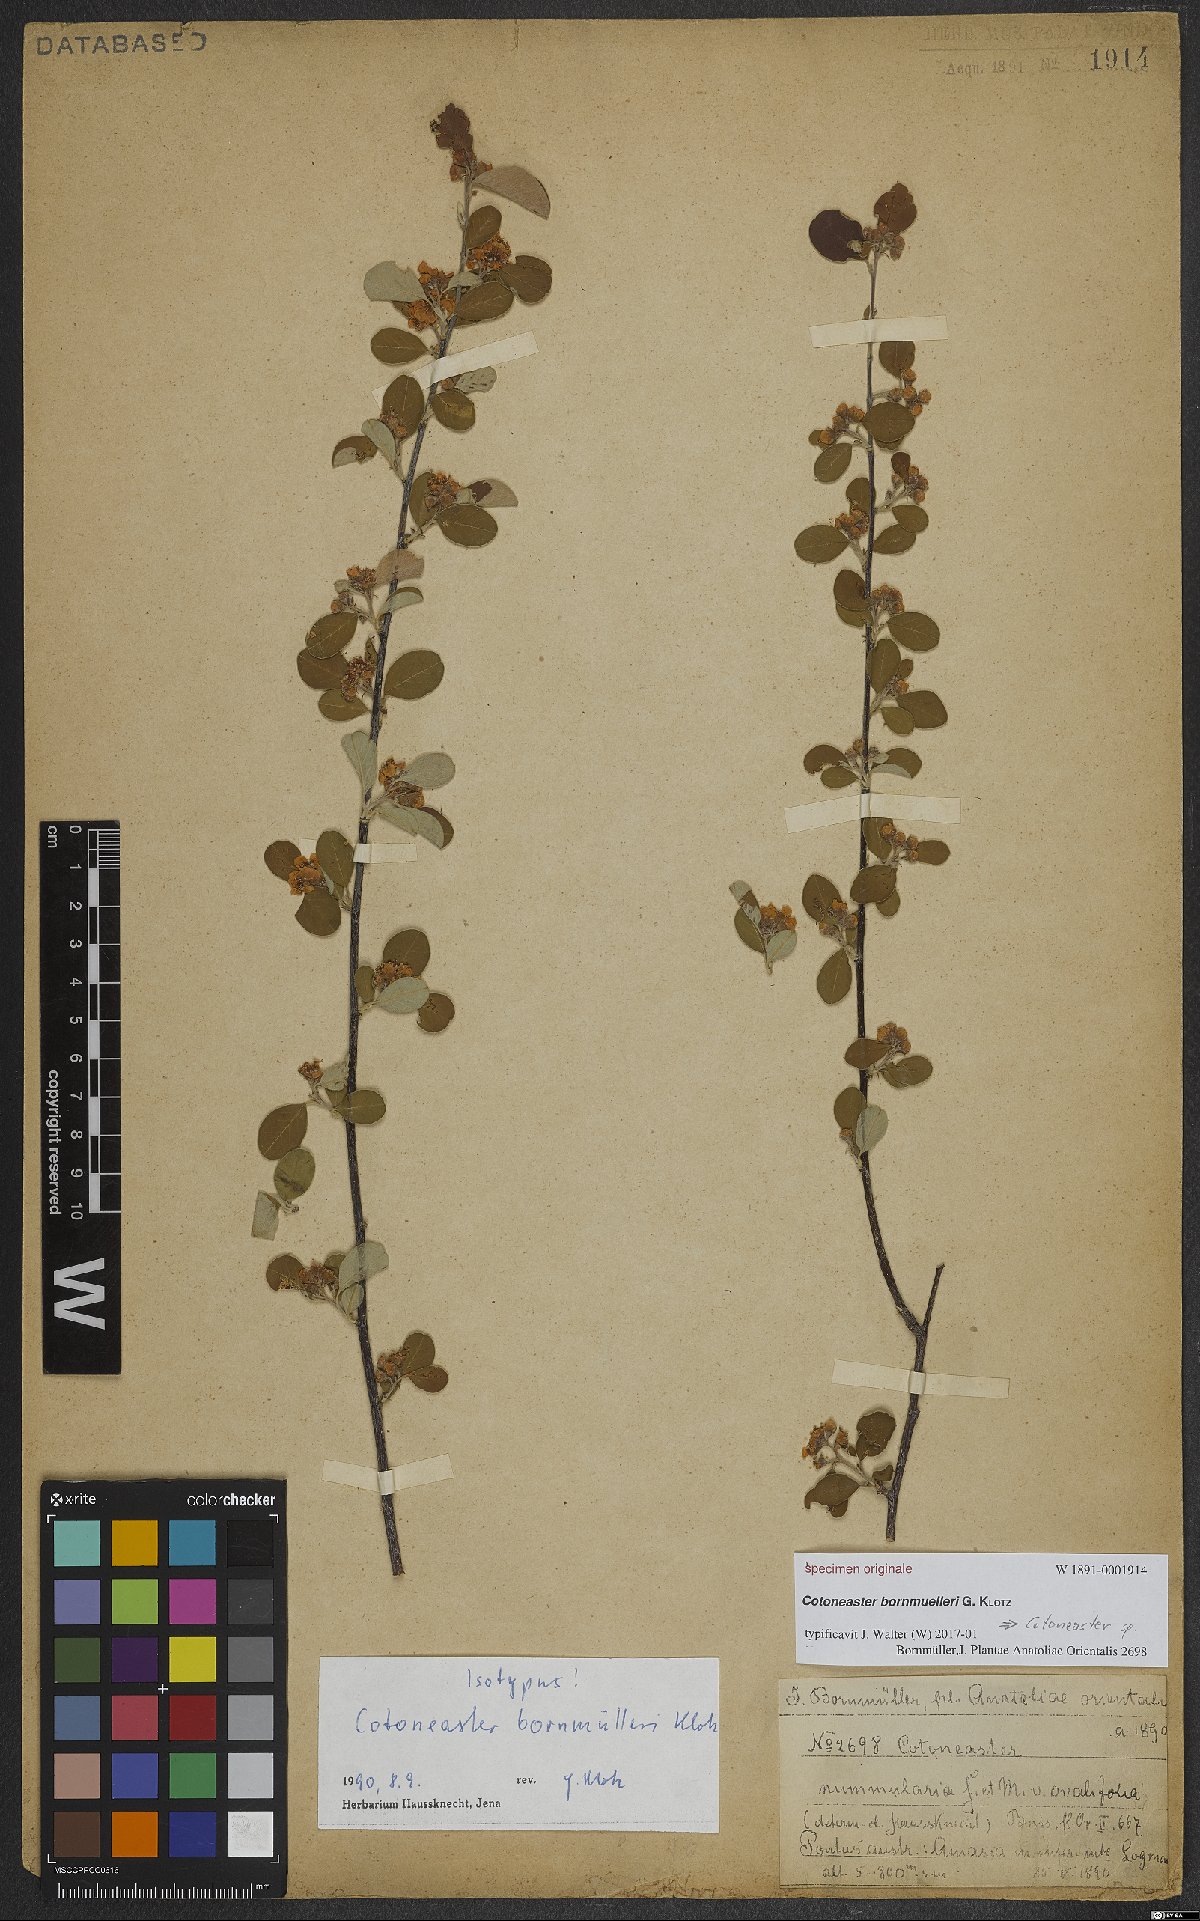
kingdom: Plantae
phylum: Tracheophyta
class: Magnoliopsida
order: Rosales
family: Rosaceae
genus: Cotoneaster
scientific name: Cotoneaster
